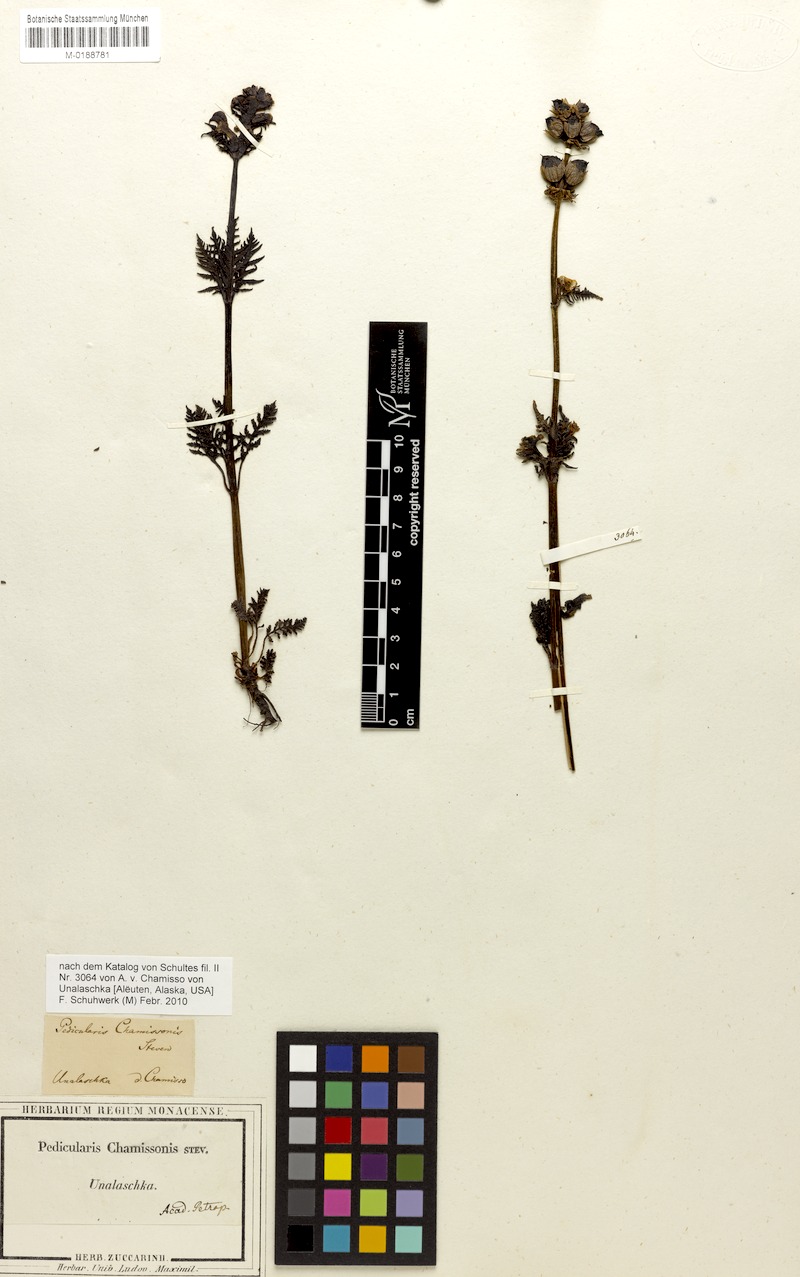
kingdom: Plantae
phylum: Tracheophyta
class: Magnoliopsida
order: Lamiales
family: Orobanchaceae
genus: Pedicularis
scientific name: Pedicularis chamissonis
